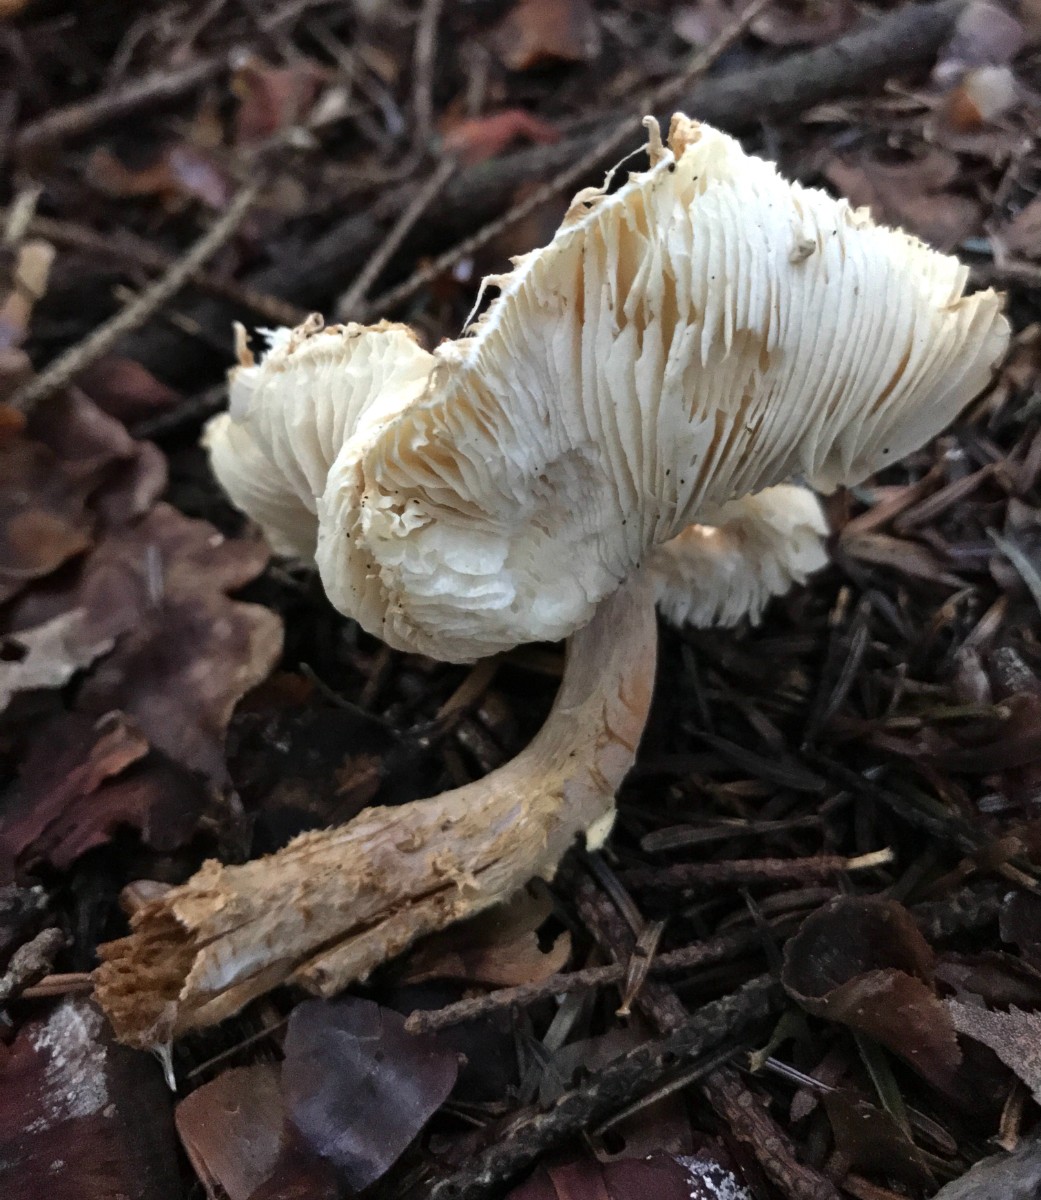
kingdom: Fungi
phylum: Basidiomycota
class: Agaricomycetes
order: Agaricales
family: Agaricaceae
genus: Lepiota
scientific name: Lepiota magnispora
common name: gulfnugget parasolhat
